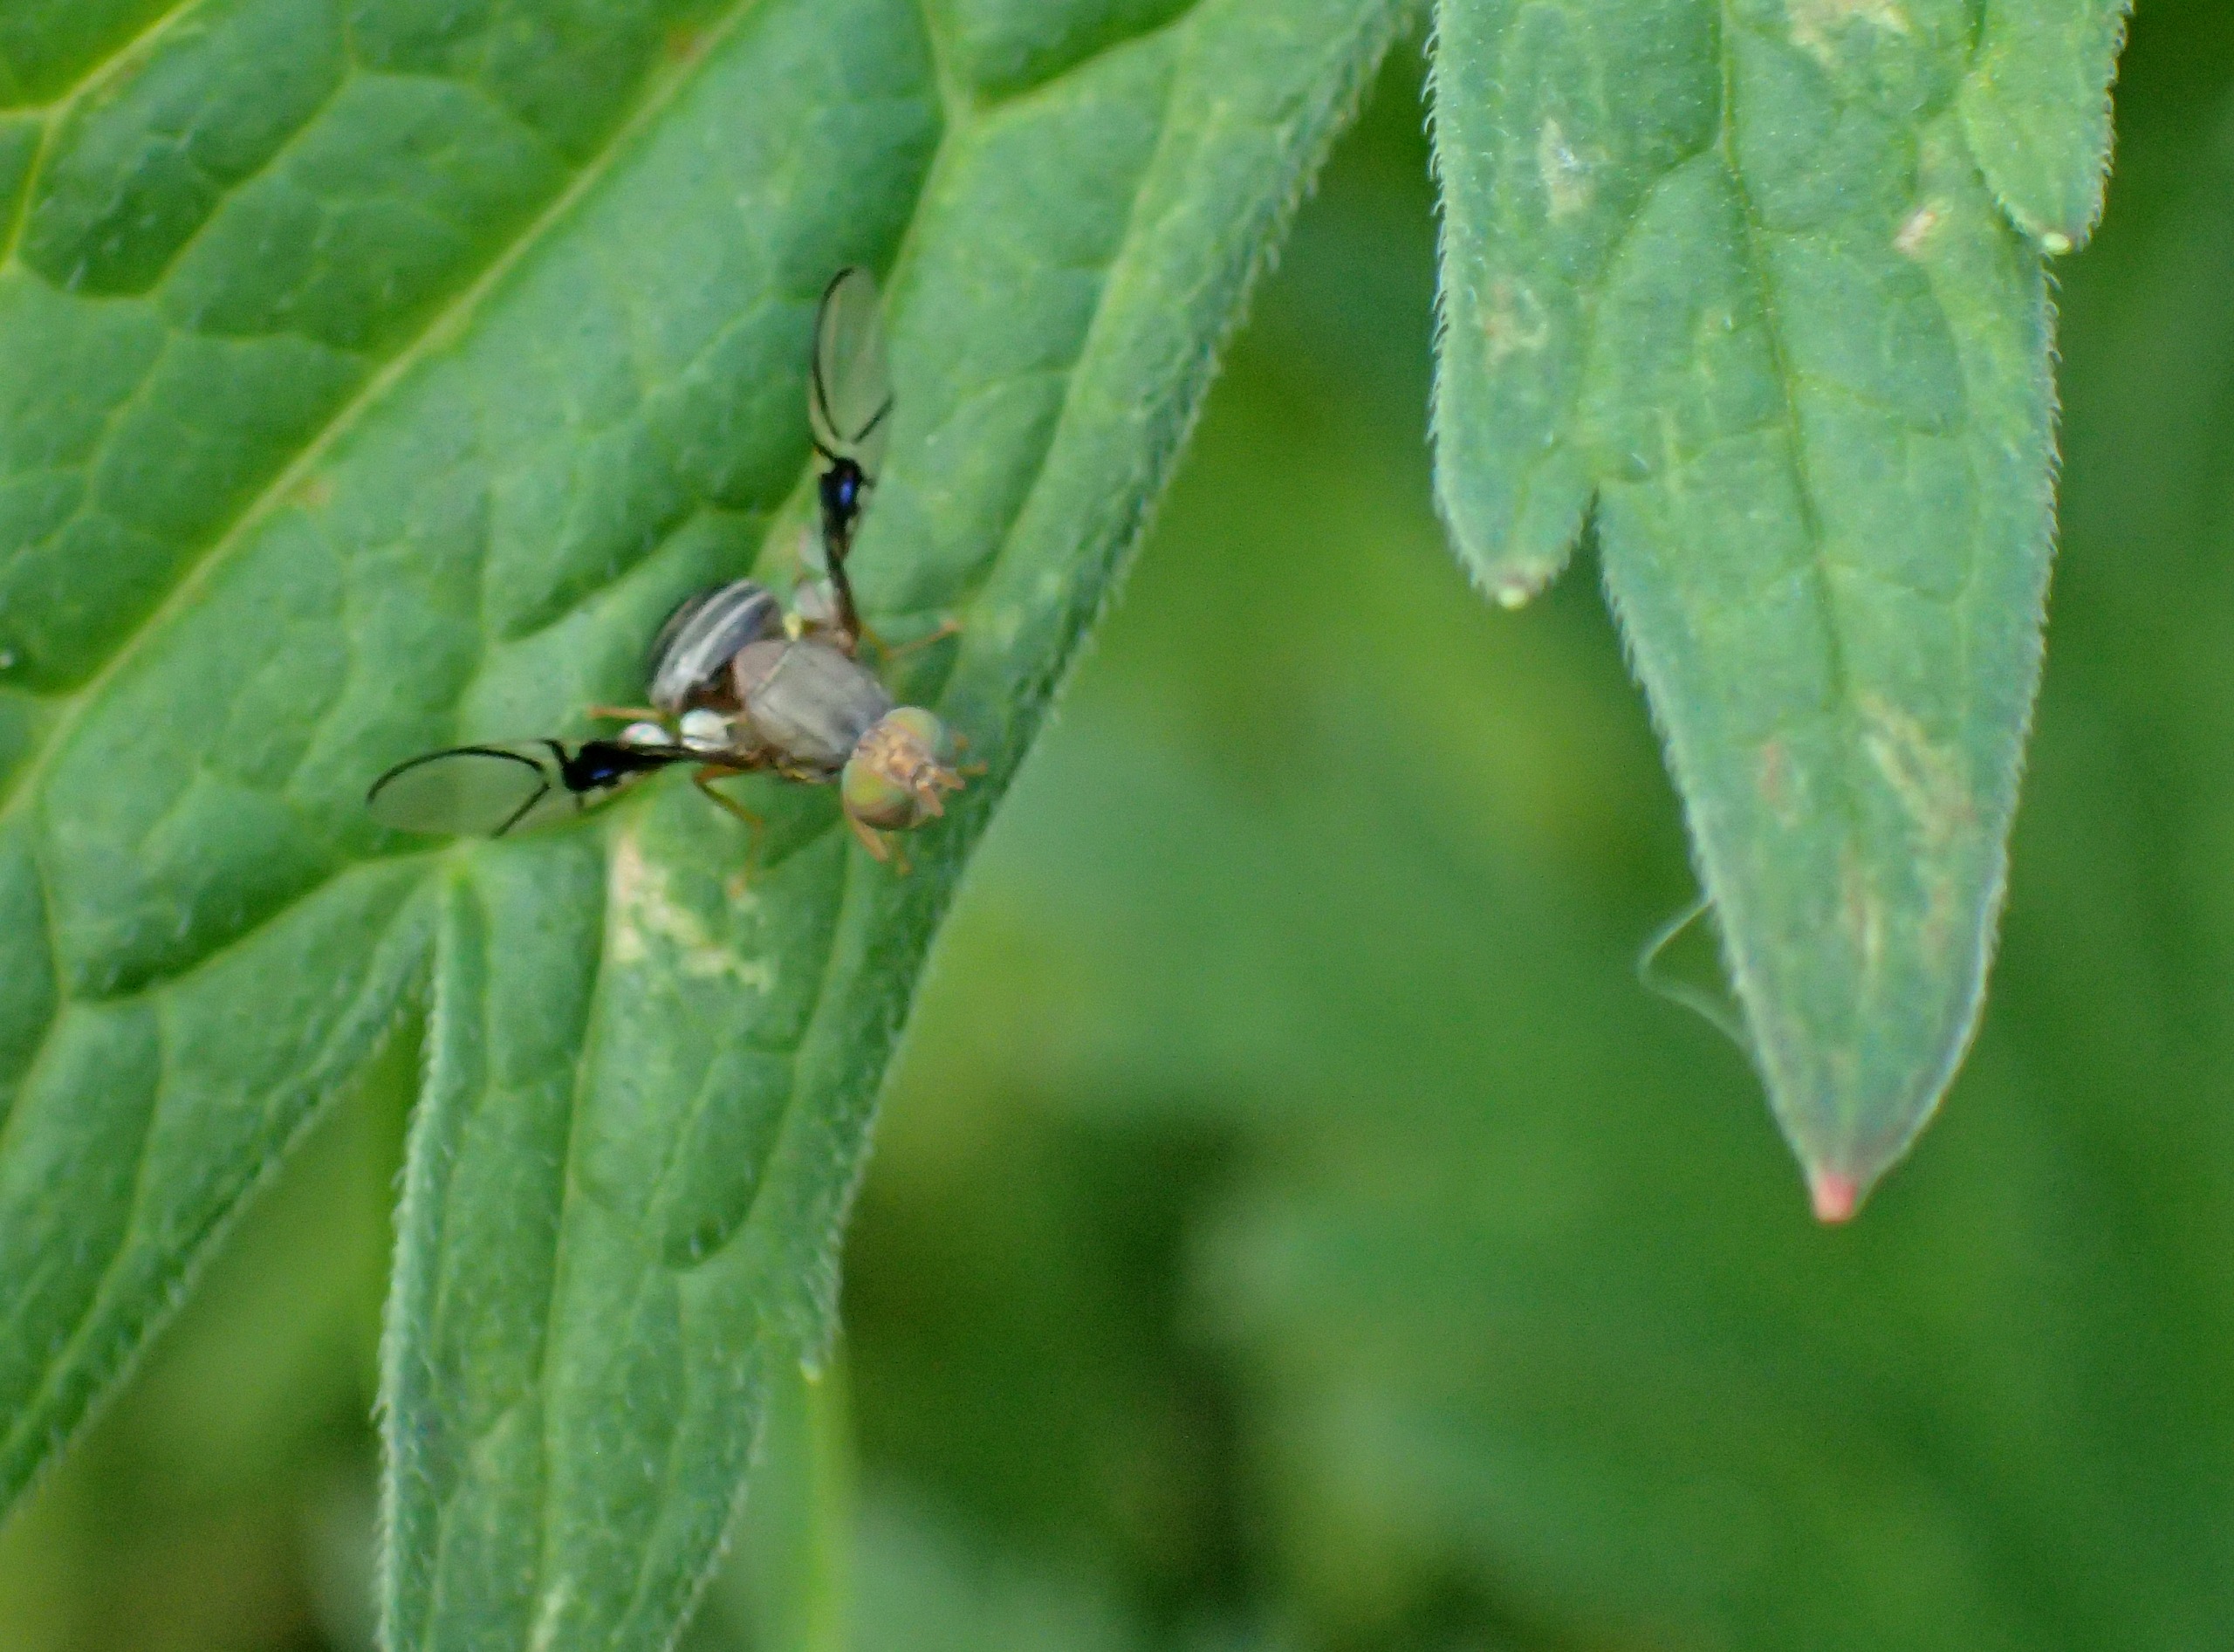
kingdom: Animalia
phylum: Arthropoda
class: Insecta
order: Diptera
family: Tephritidae
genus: Anomoia
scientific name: Anomoia purmunda
